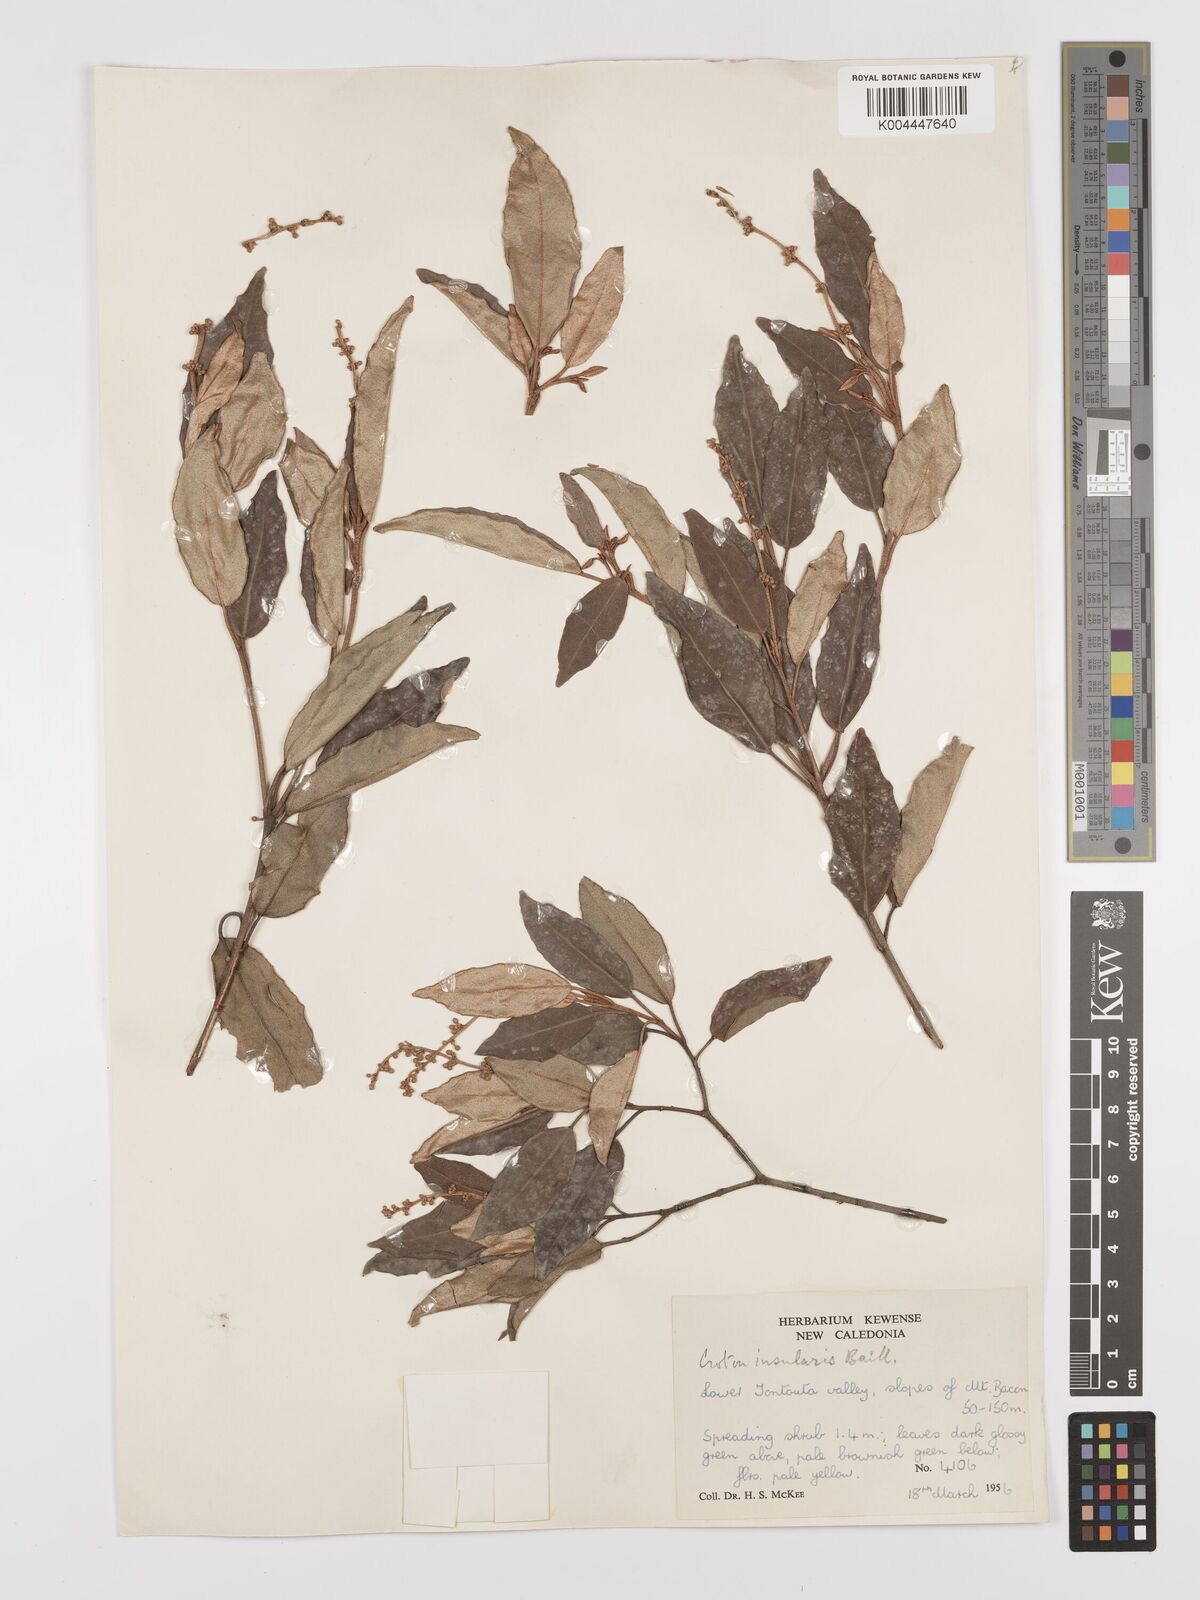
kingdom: Plantae
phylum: Tracheophyta
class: Magnoliopsida
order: Malpighiales
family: Euphorbiaceae
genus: Croton
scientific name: Croton insularis
